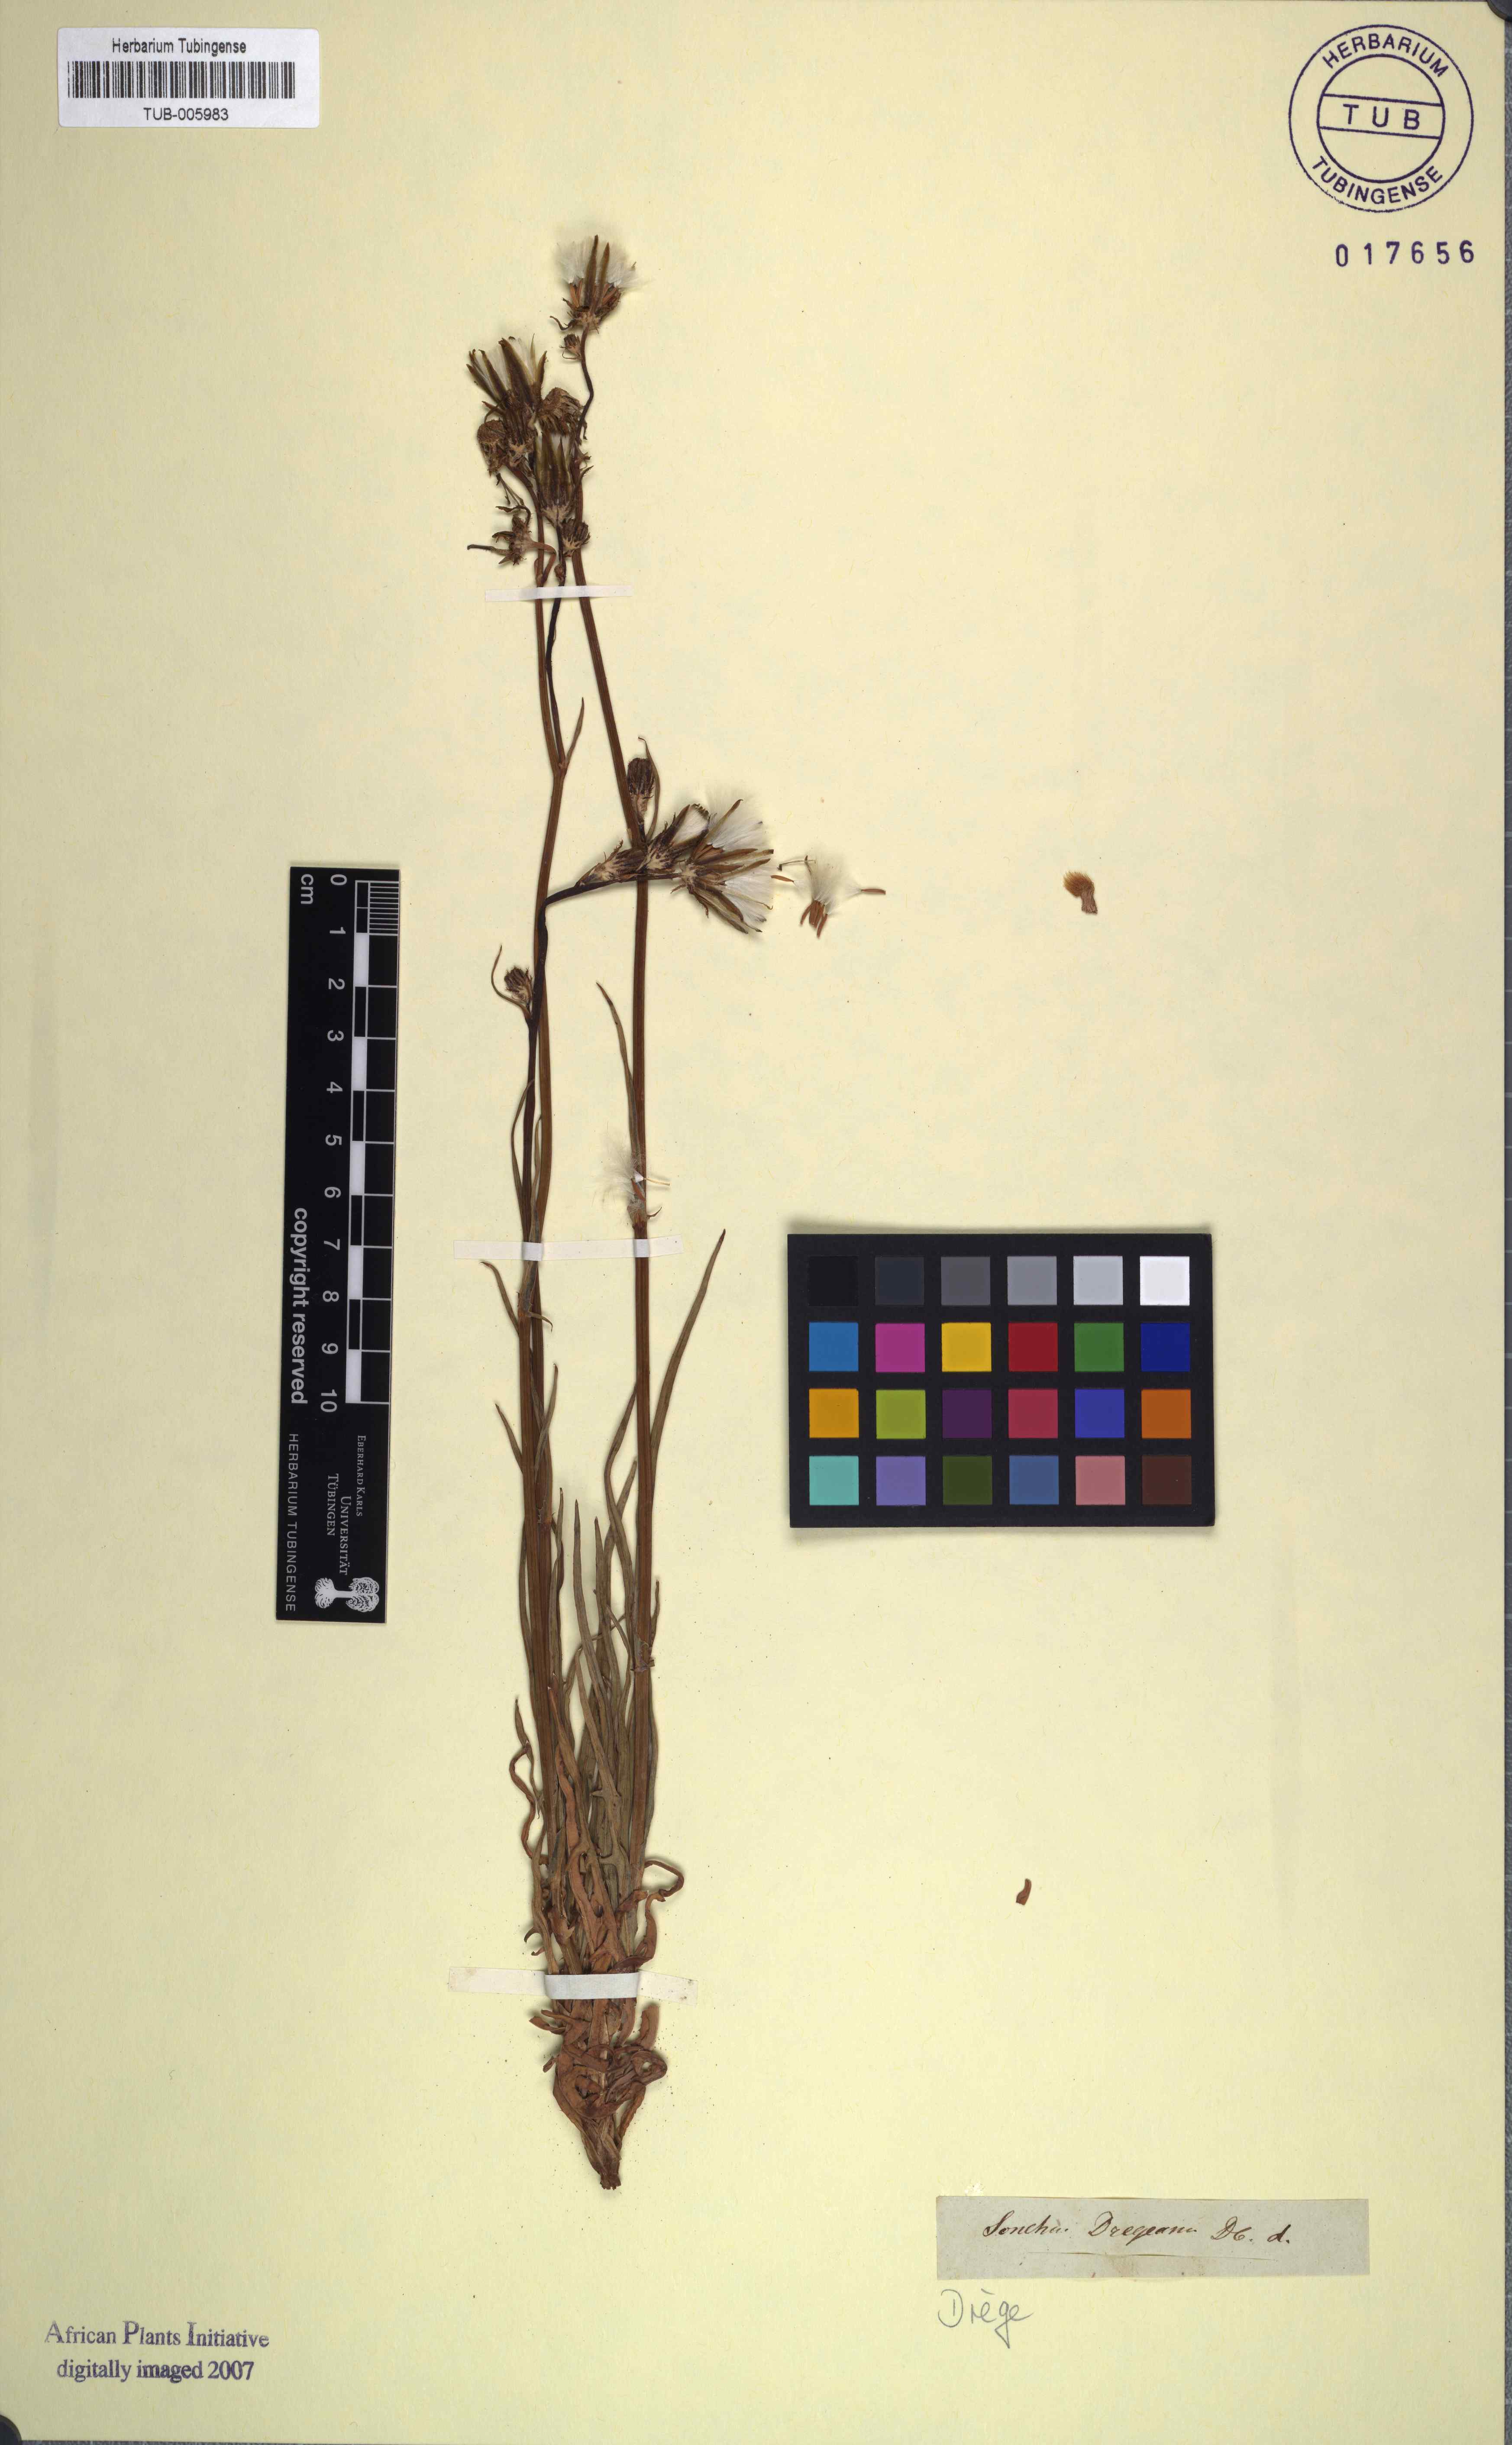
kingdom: Plantae
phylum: Tracheophyta
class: Magnoliopsida
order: Asterales
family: Asteraceae
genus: Sonchus
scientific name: Sonchus dregeanus
